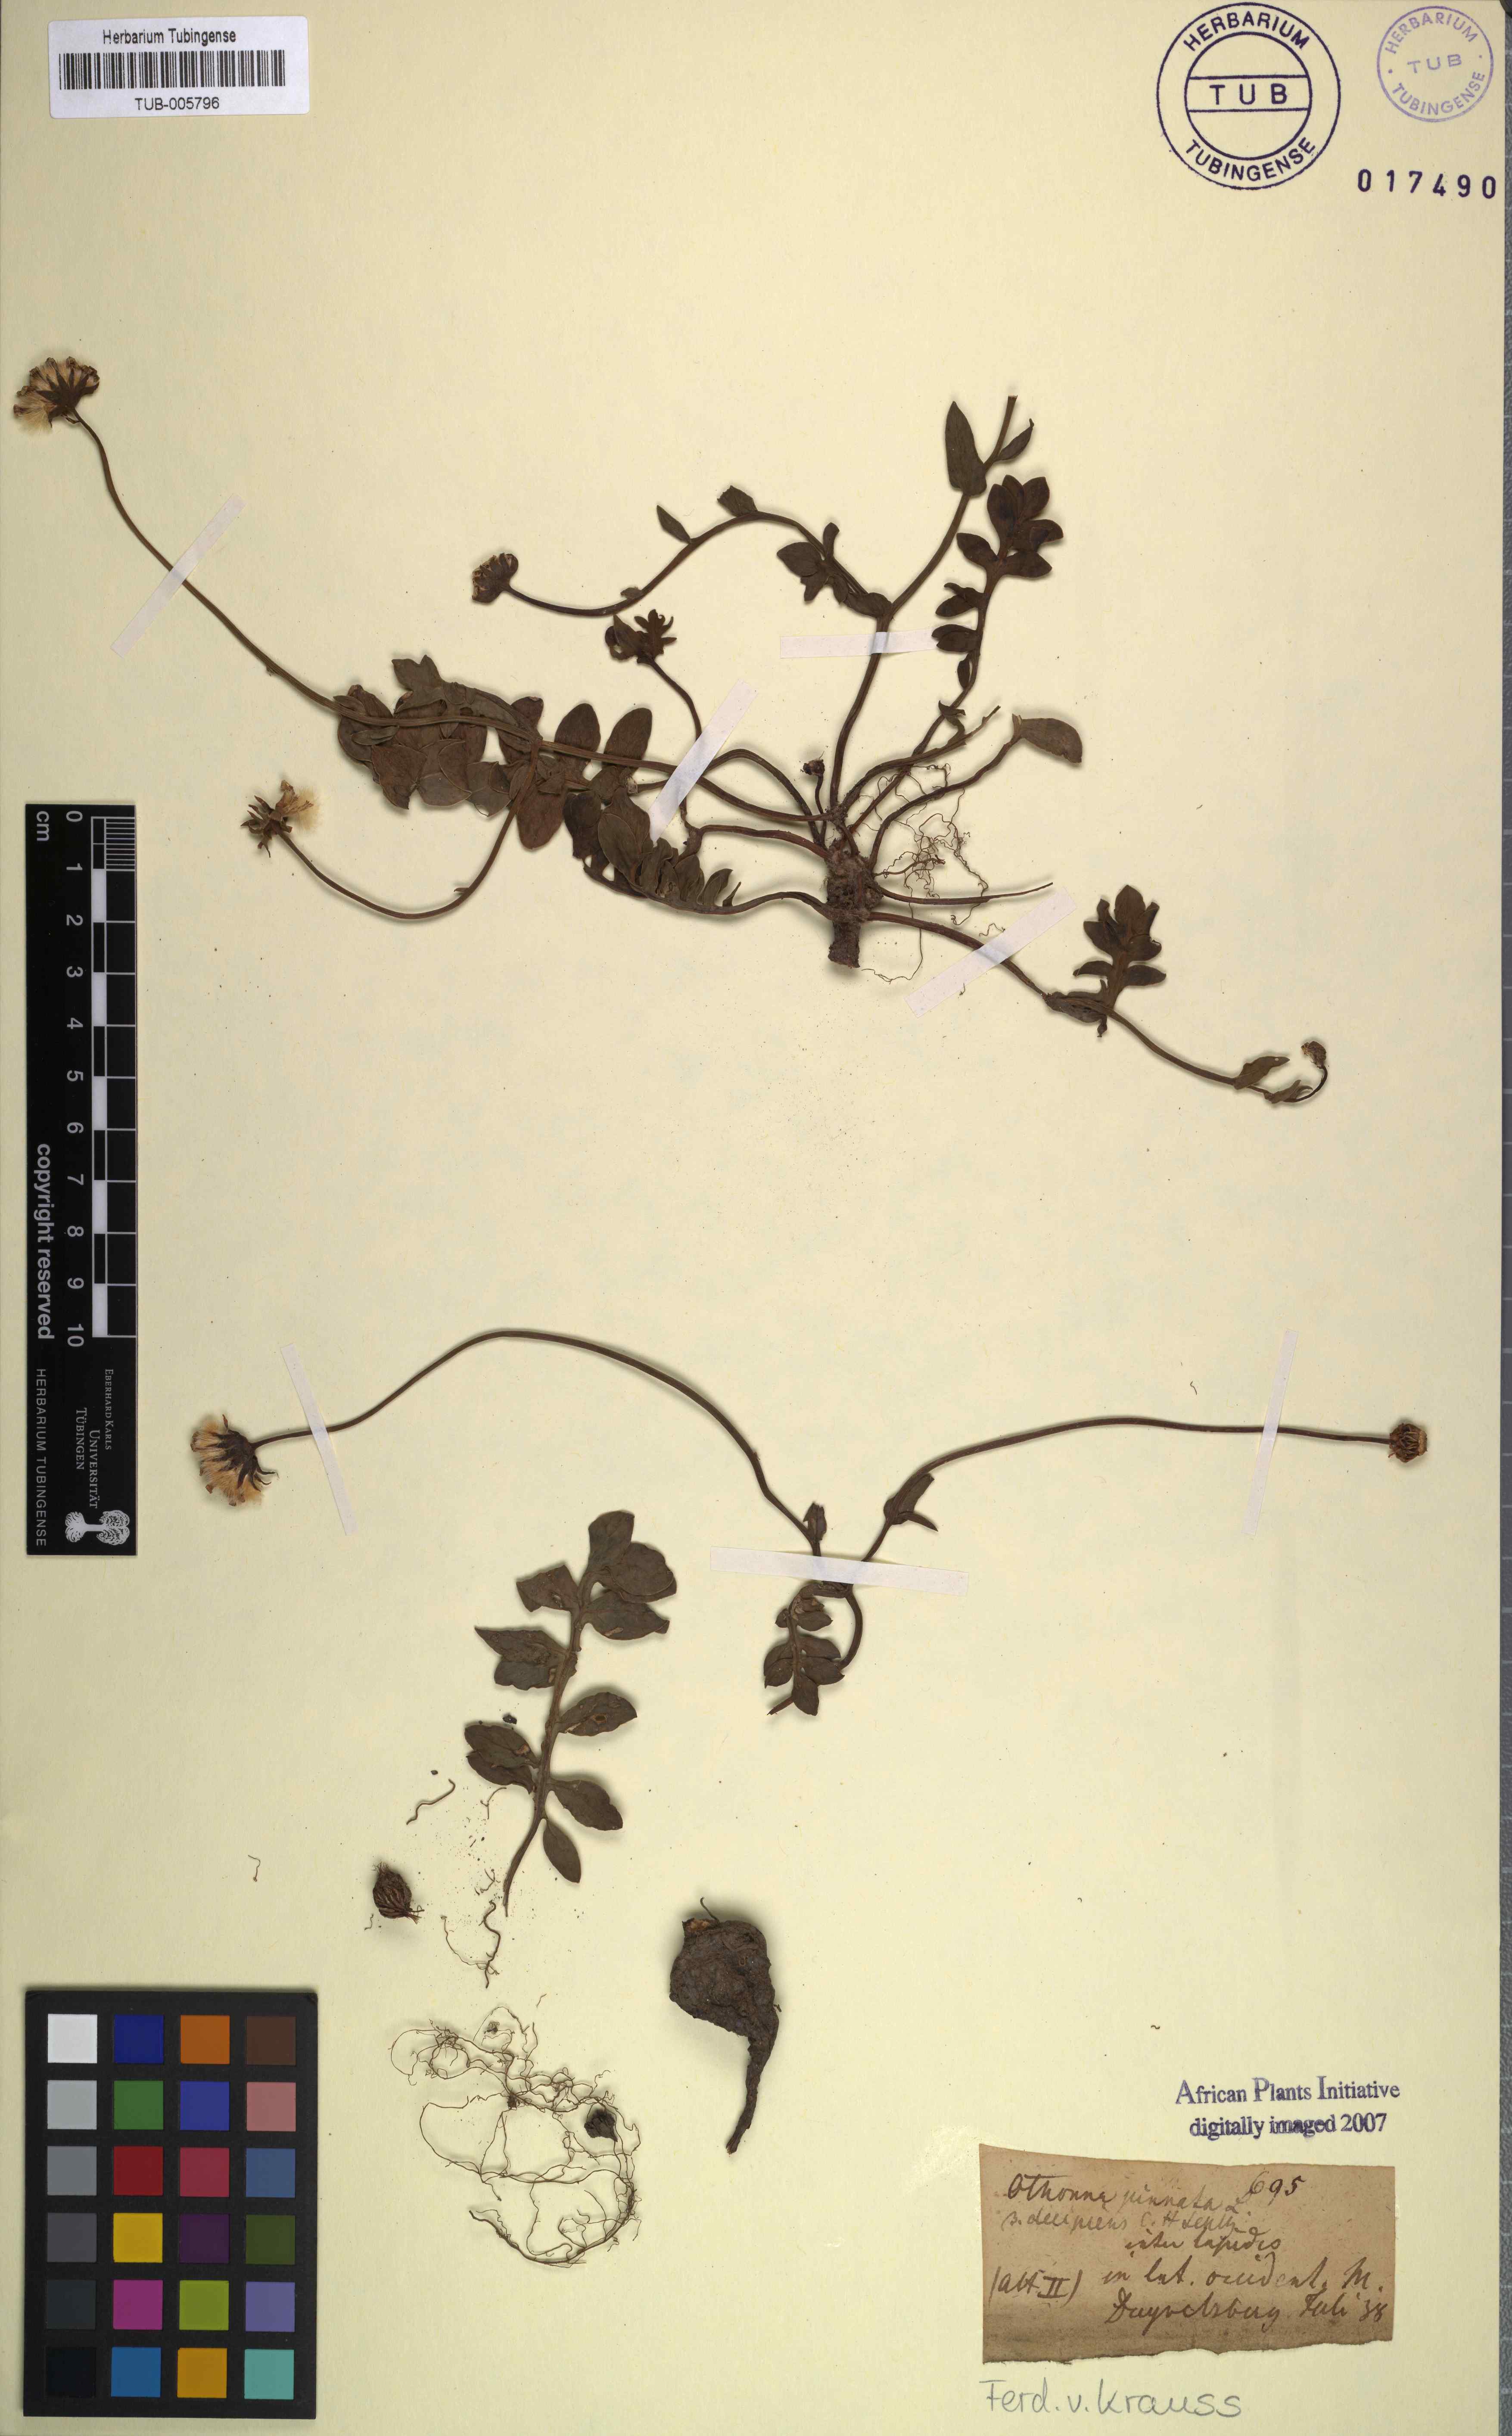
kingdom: Plantae
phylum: Tracheophyta
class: Magnoliopsida
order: Asterales
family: Asteraceae
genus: Othonna
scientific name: Othonna pinnata
